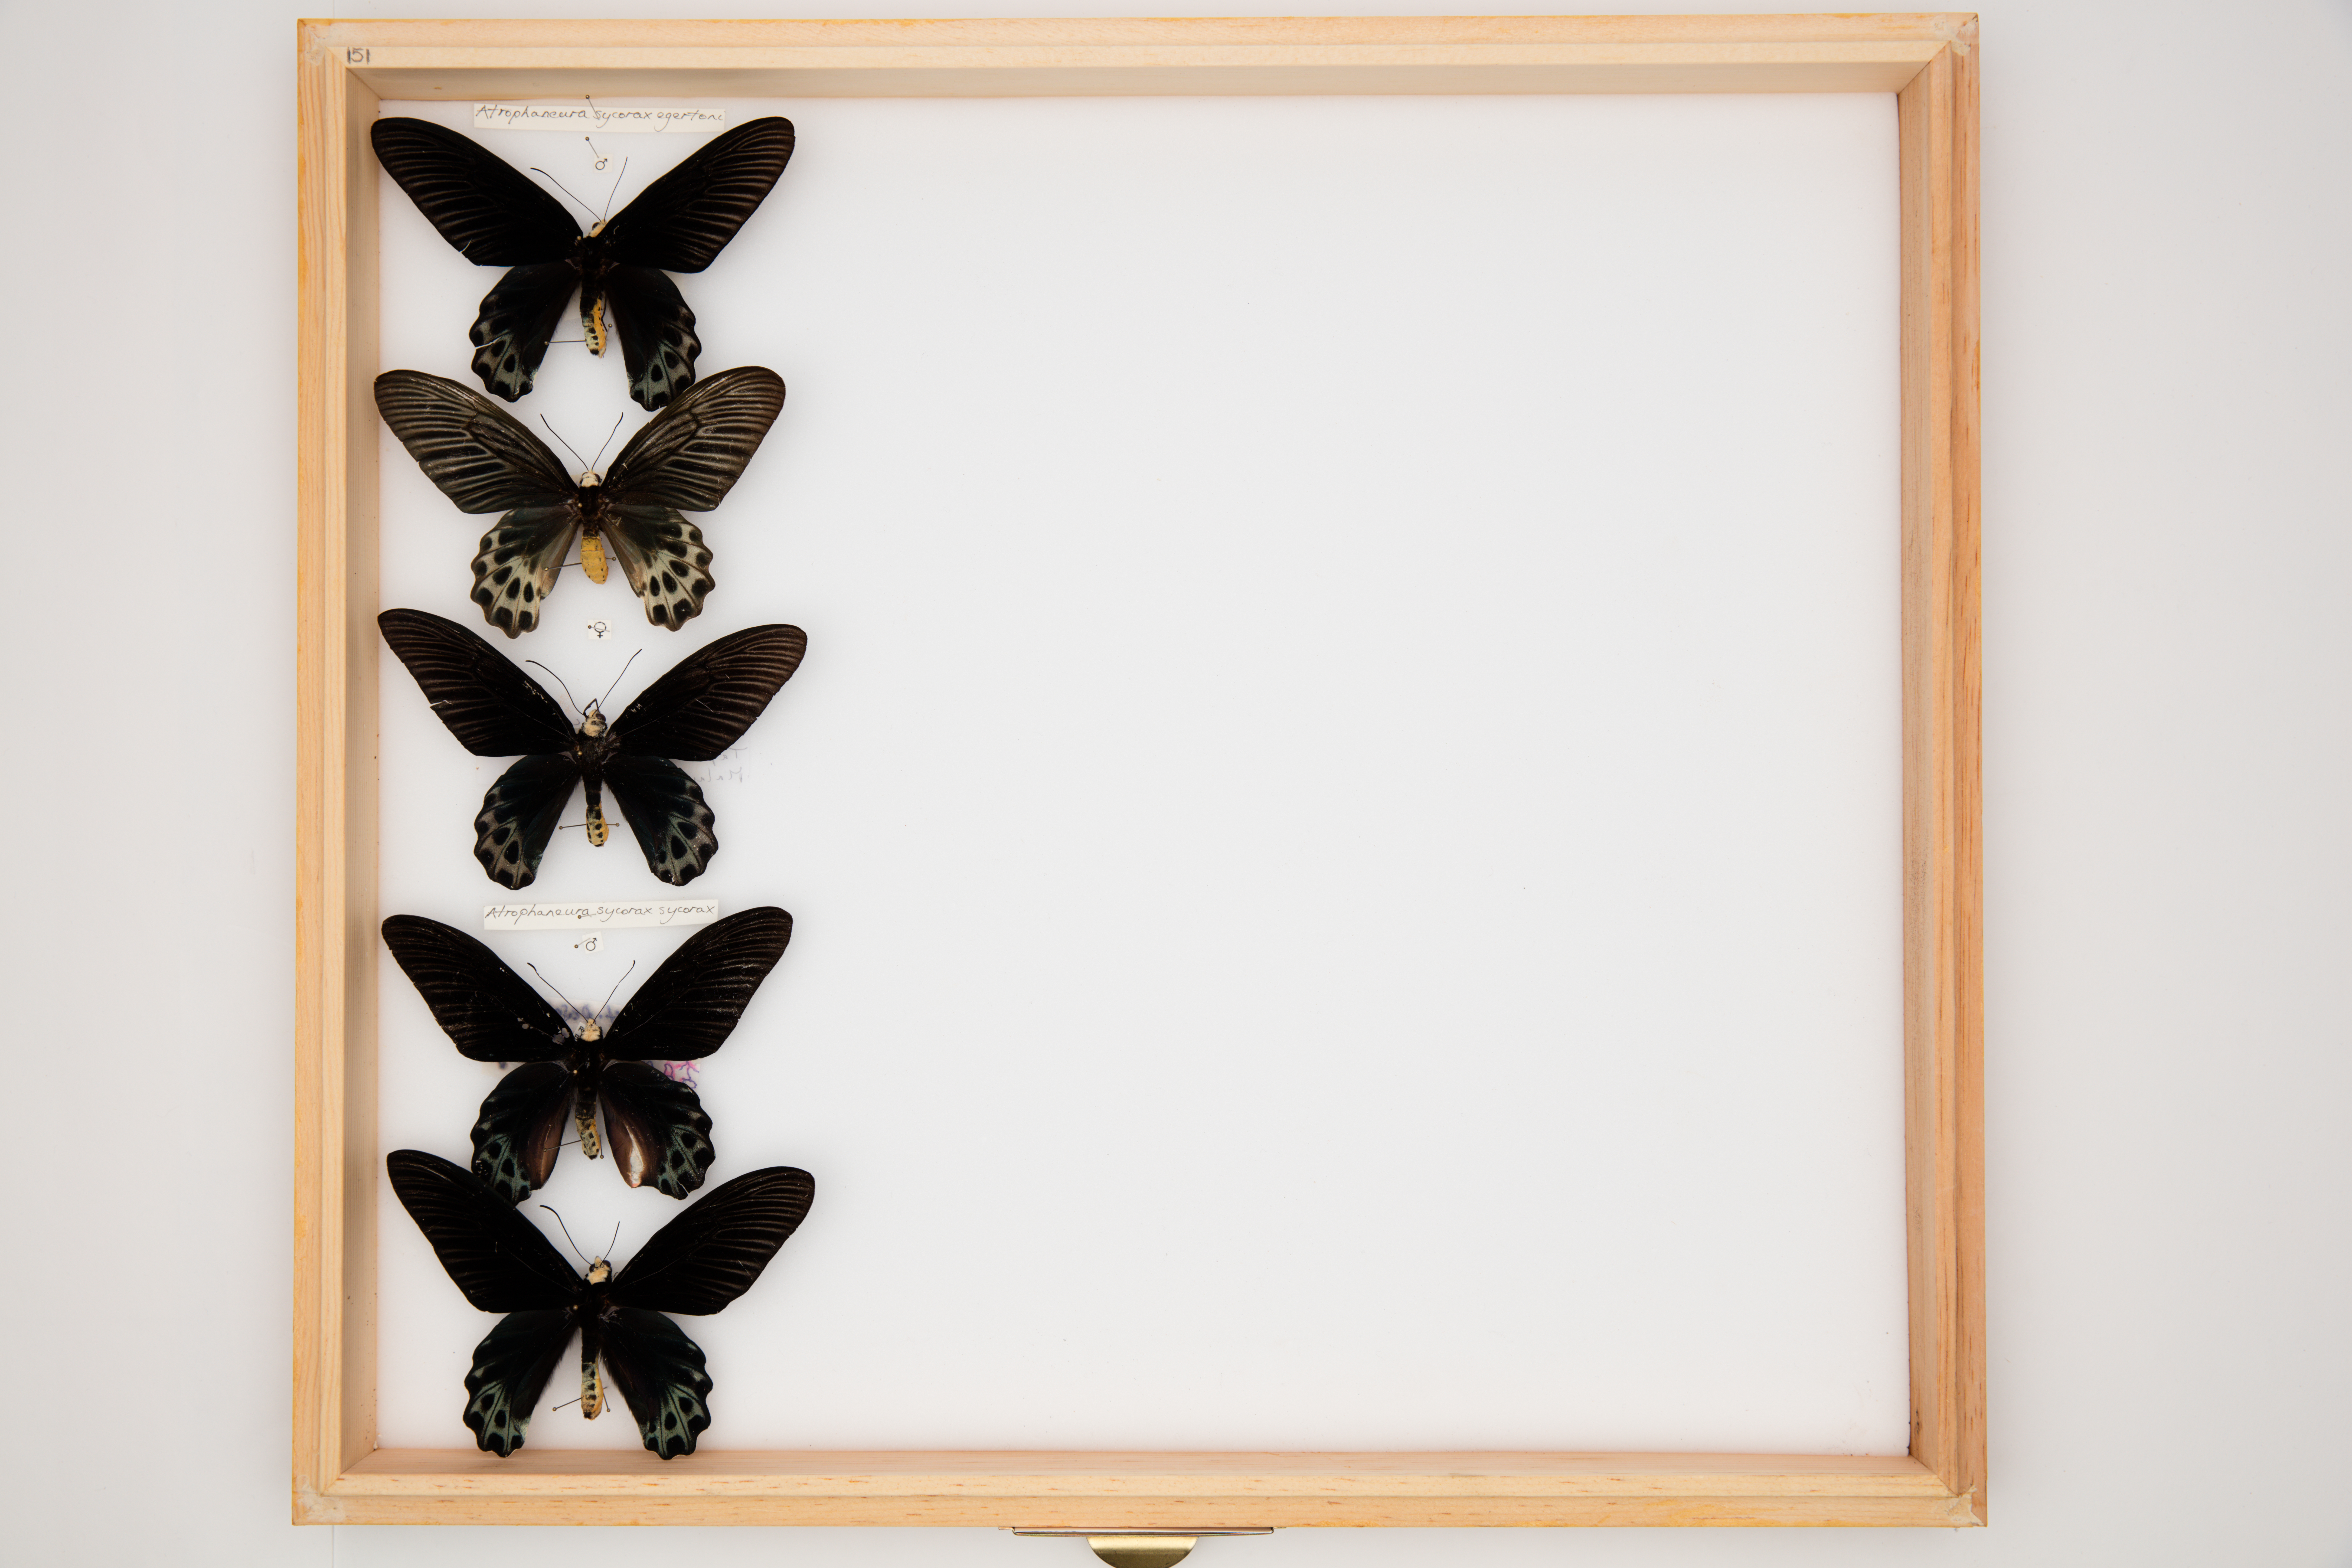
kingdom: Animalia
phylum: Arthropoda
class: Insecta
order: Lepidoptera
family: Papilionidae
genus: Atrophaneura
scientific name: Atrophaneura sycorax
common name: Whitehead batwing
